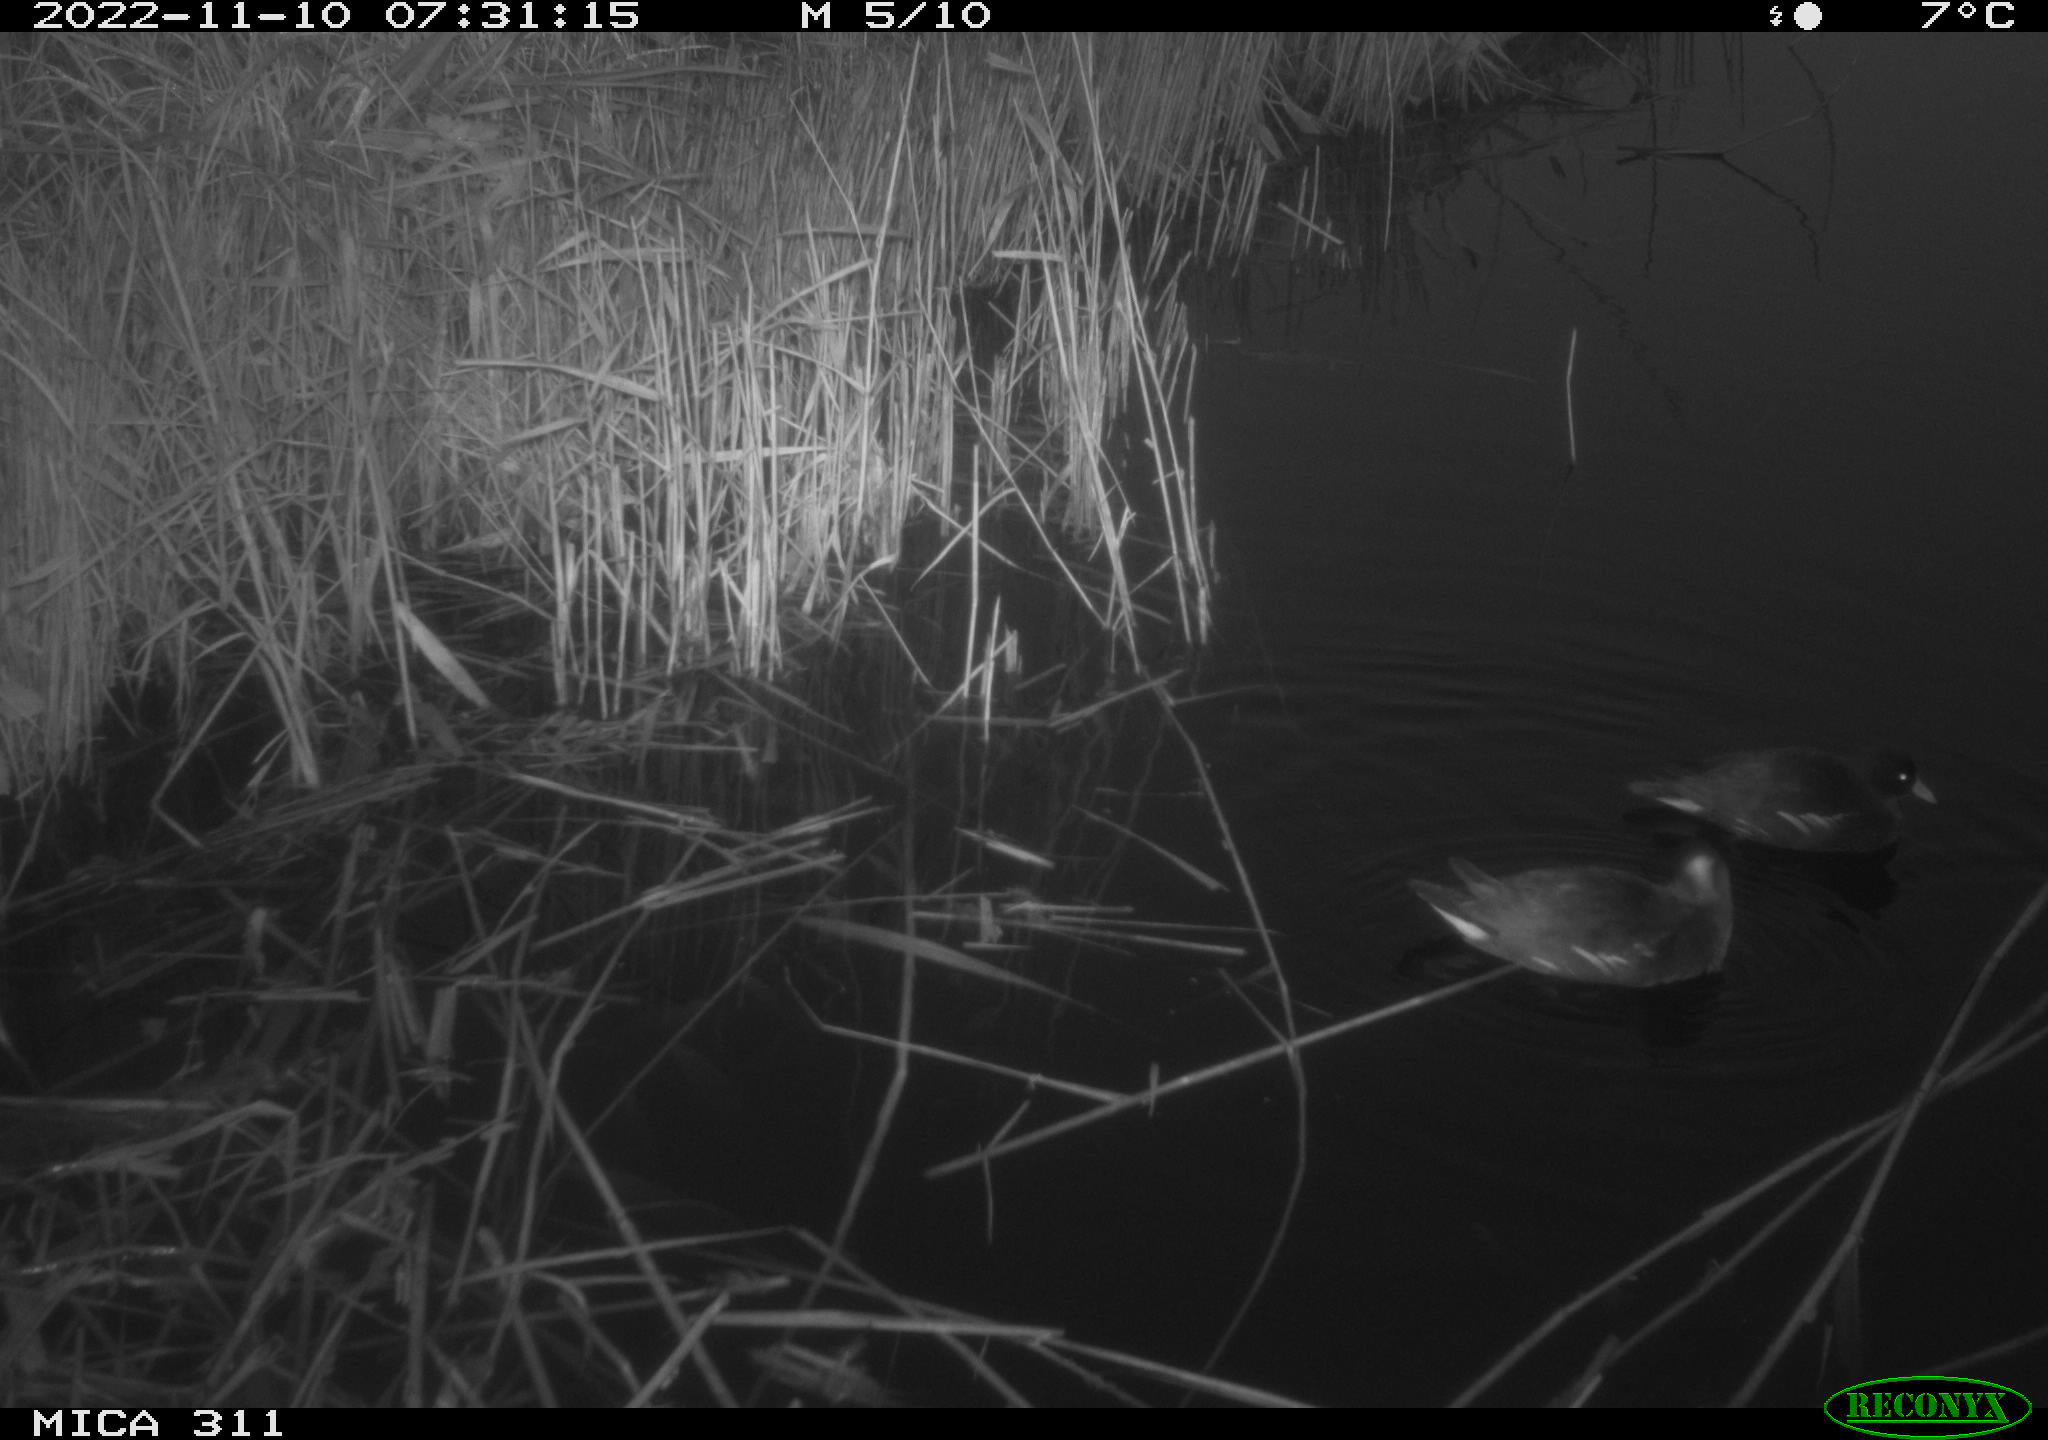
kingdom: Animalia
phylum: Chordata
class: Aves
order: Gruiformes
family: Rallidae
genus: Gallinula
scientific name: Gallinula chloropus
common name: Common moorhen
